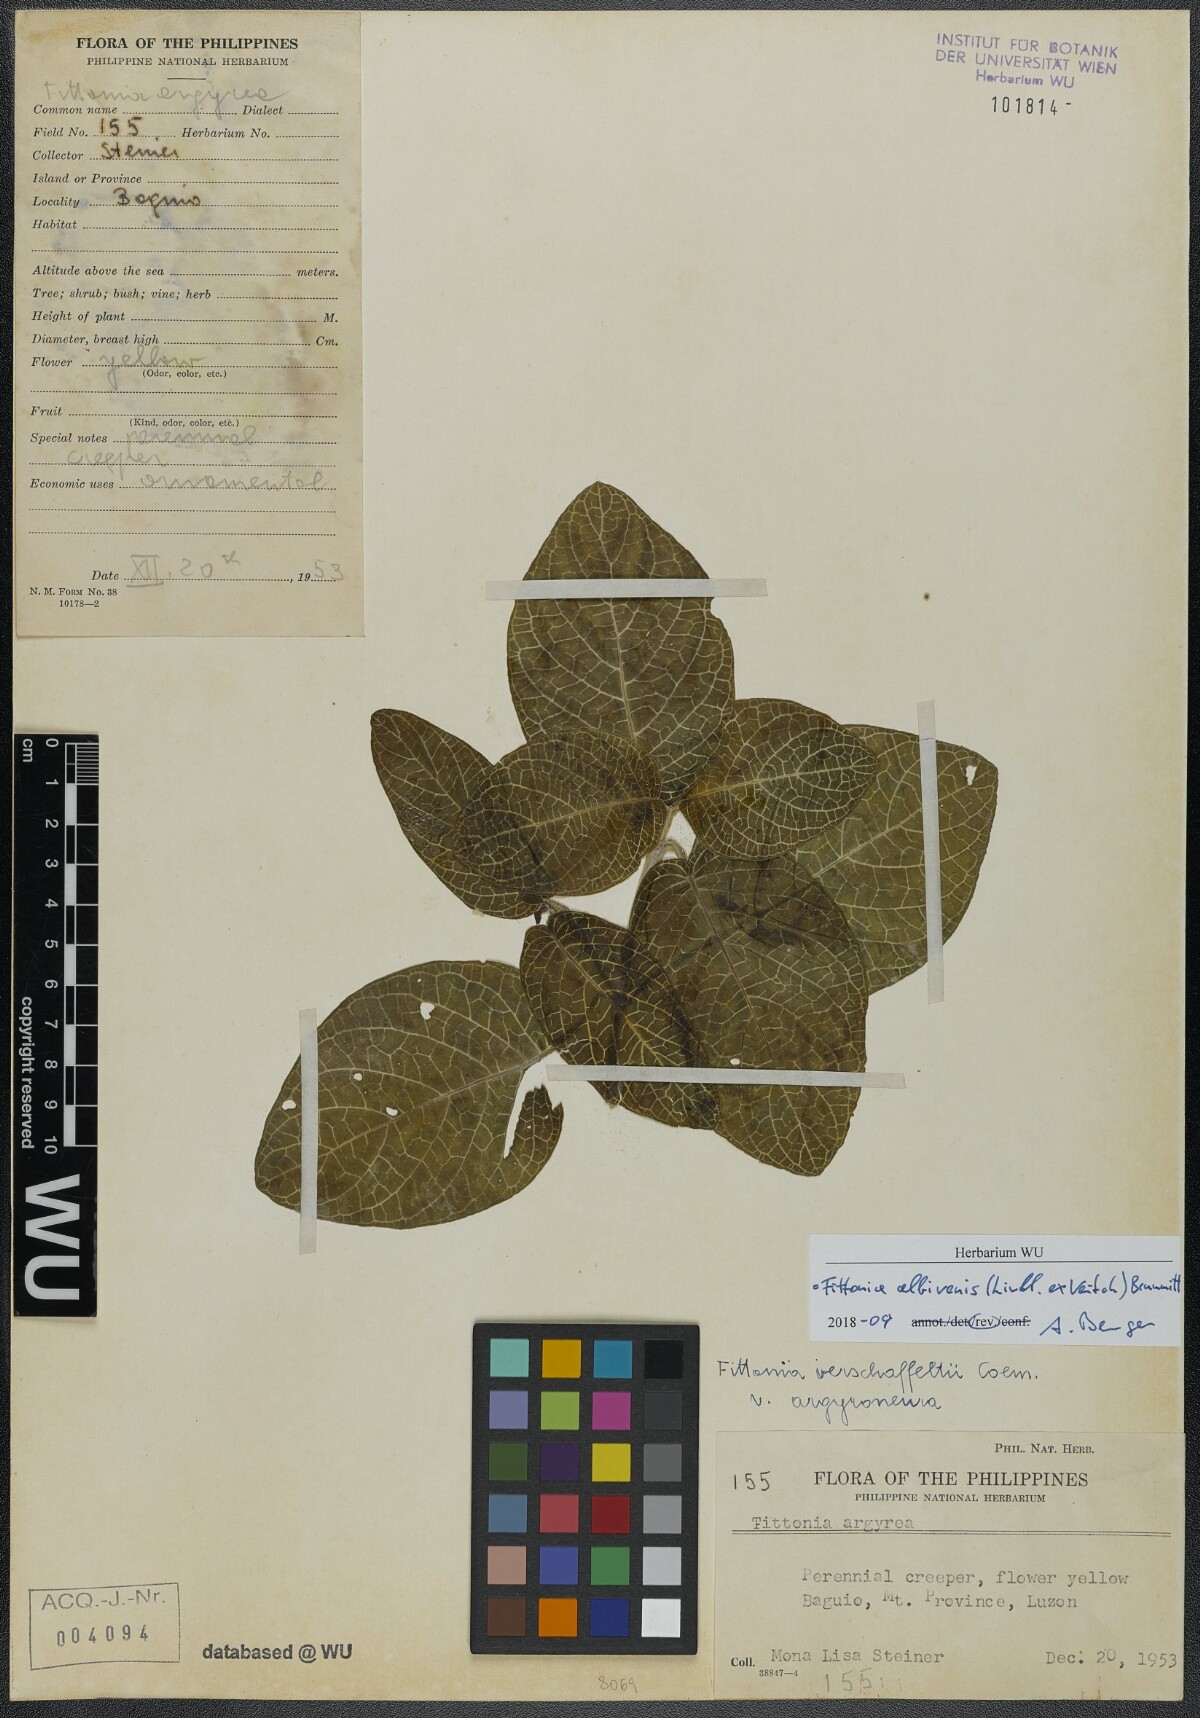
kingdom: Plantae
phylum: Tracheophyta
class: Magnoliopsida
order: Lamiales
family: Acanthaceae
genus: Fittonia
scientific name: Fittonia albivenis
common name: Mosaic-plant
